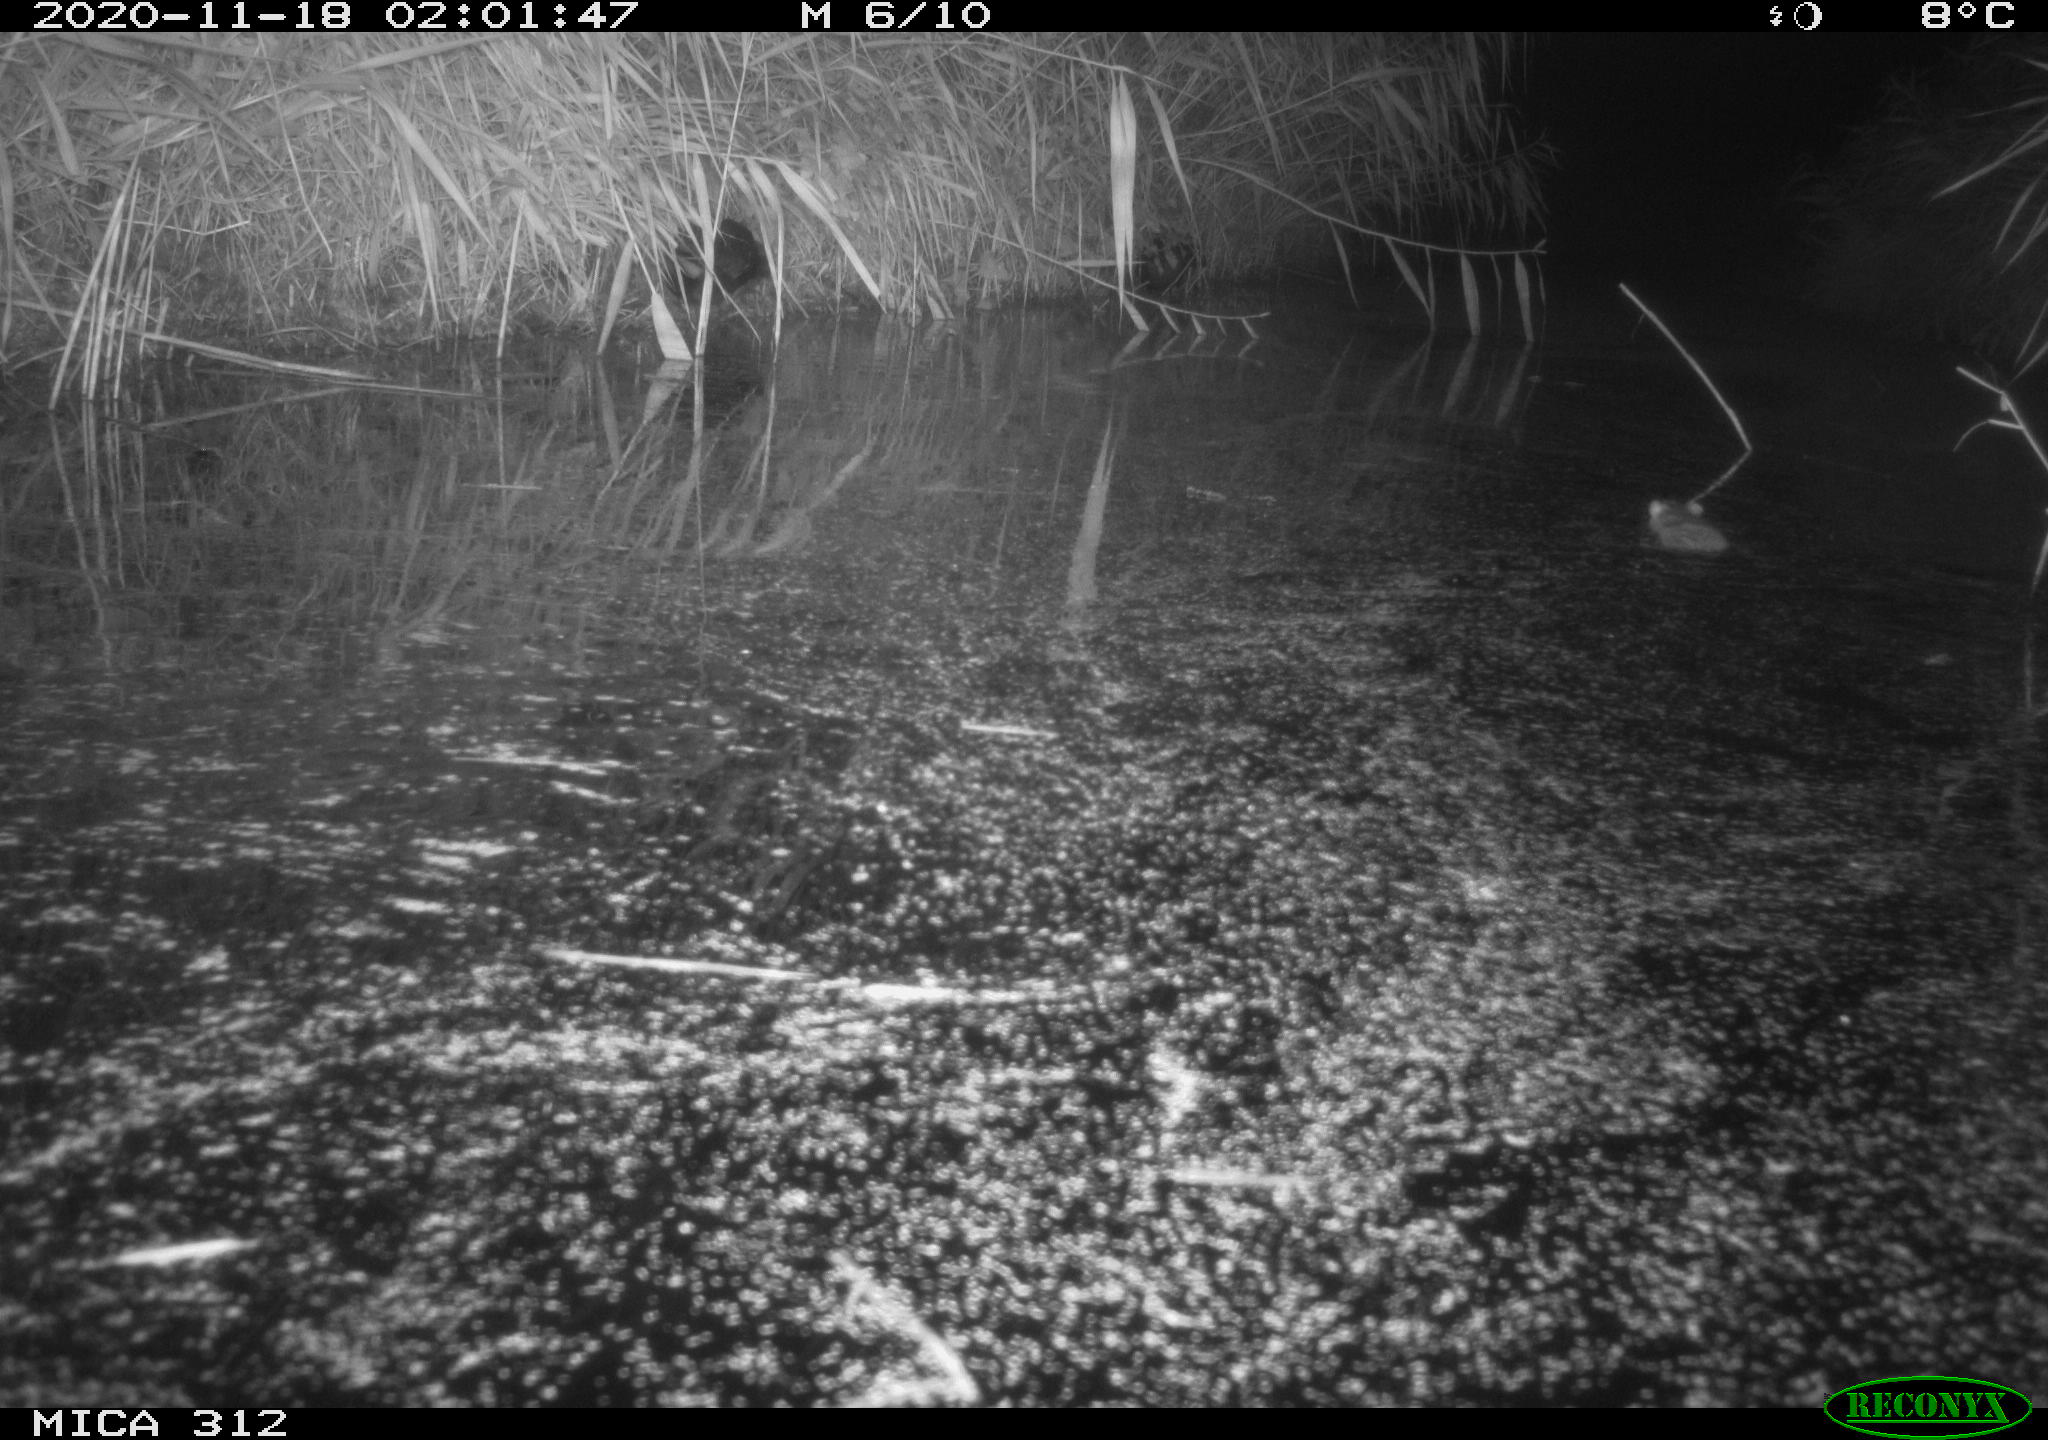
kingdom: Animalia
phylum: Chordata
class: Aves
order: Gruiformes
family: Rallidae
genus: Gallinula
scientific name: Gallinula chloropus
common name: Common moorhen
